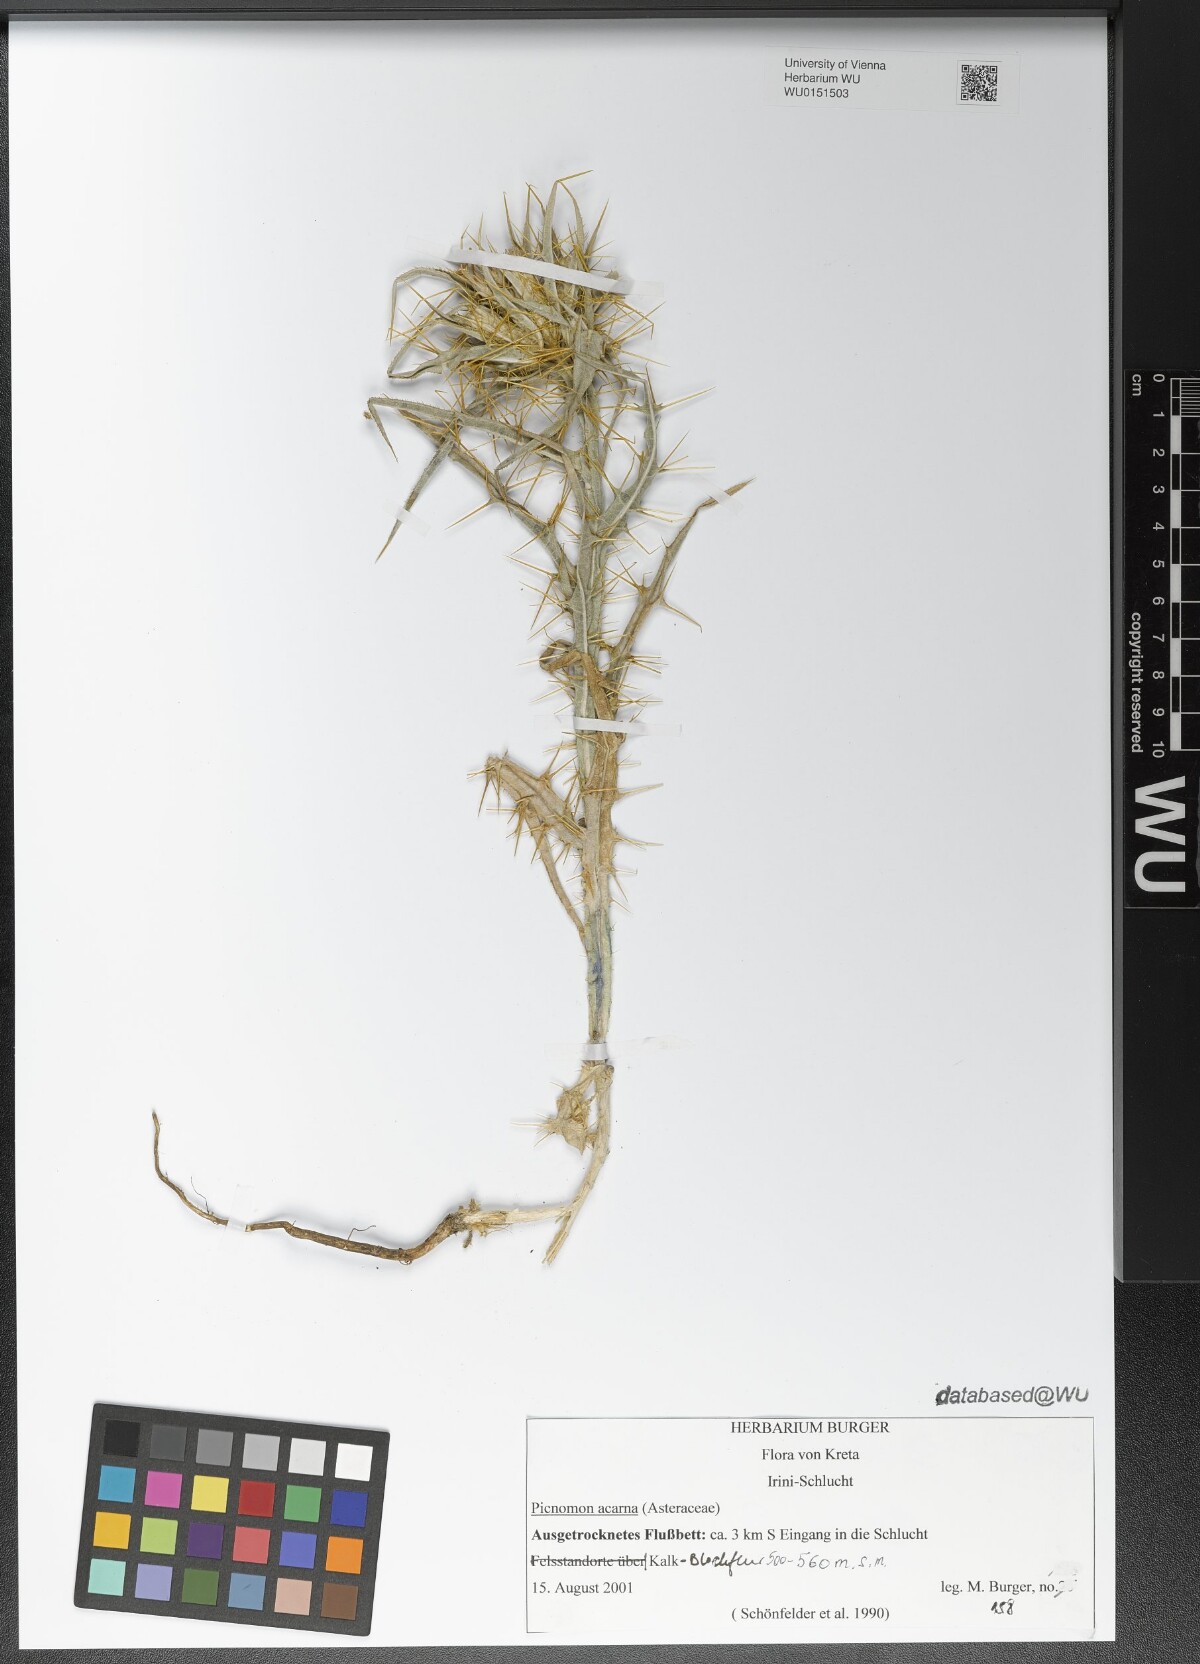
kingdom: Plantae
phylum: Tracheophyta
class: Magnoliopsida
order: Asterales
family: Asteraceae
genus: Picnomon
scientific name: Picnomon acarna
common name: Soldier thistle
